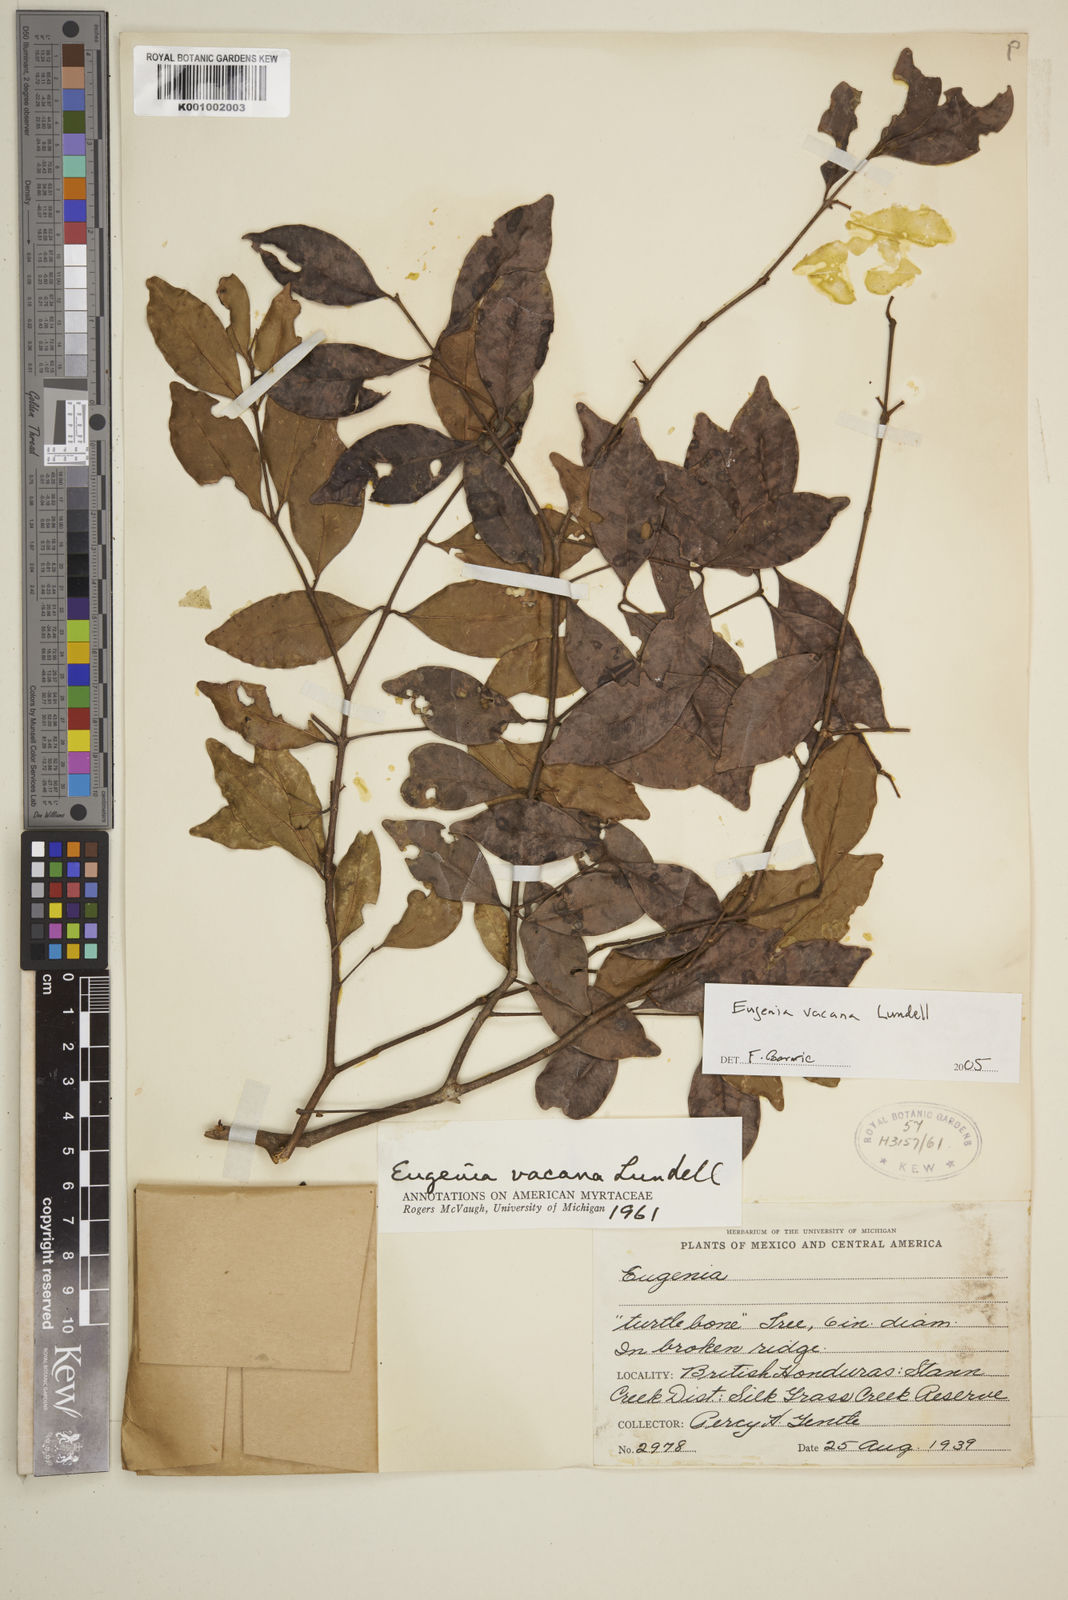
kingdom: Plantae
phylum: Tracheophyta
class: Magnoliopsida
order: Myrtales
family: Myrtaceae
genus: Eugenia
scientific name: Eugenia vacana
